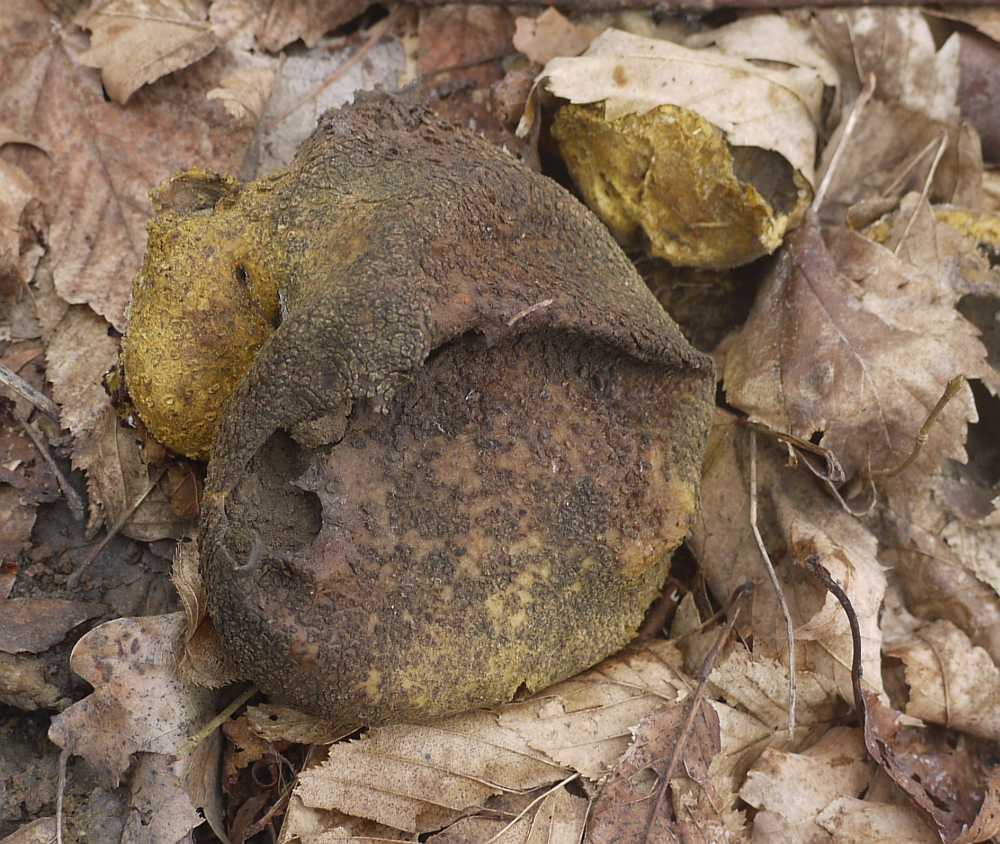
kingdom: Fungi
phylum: Basidiomycota
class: Agaricomycetes
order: Boletales
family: Sclerodermataceae
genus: Scleroderma
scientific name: Scleroderma citrinum
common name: almindelig bruskbold
